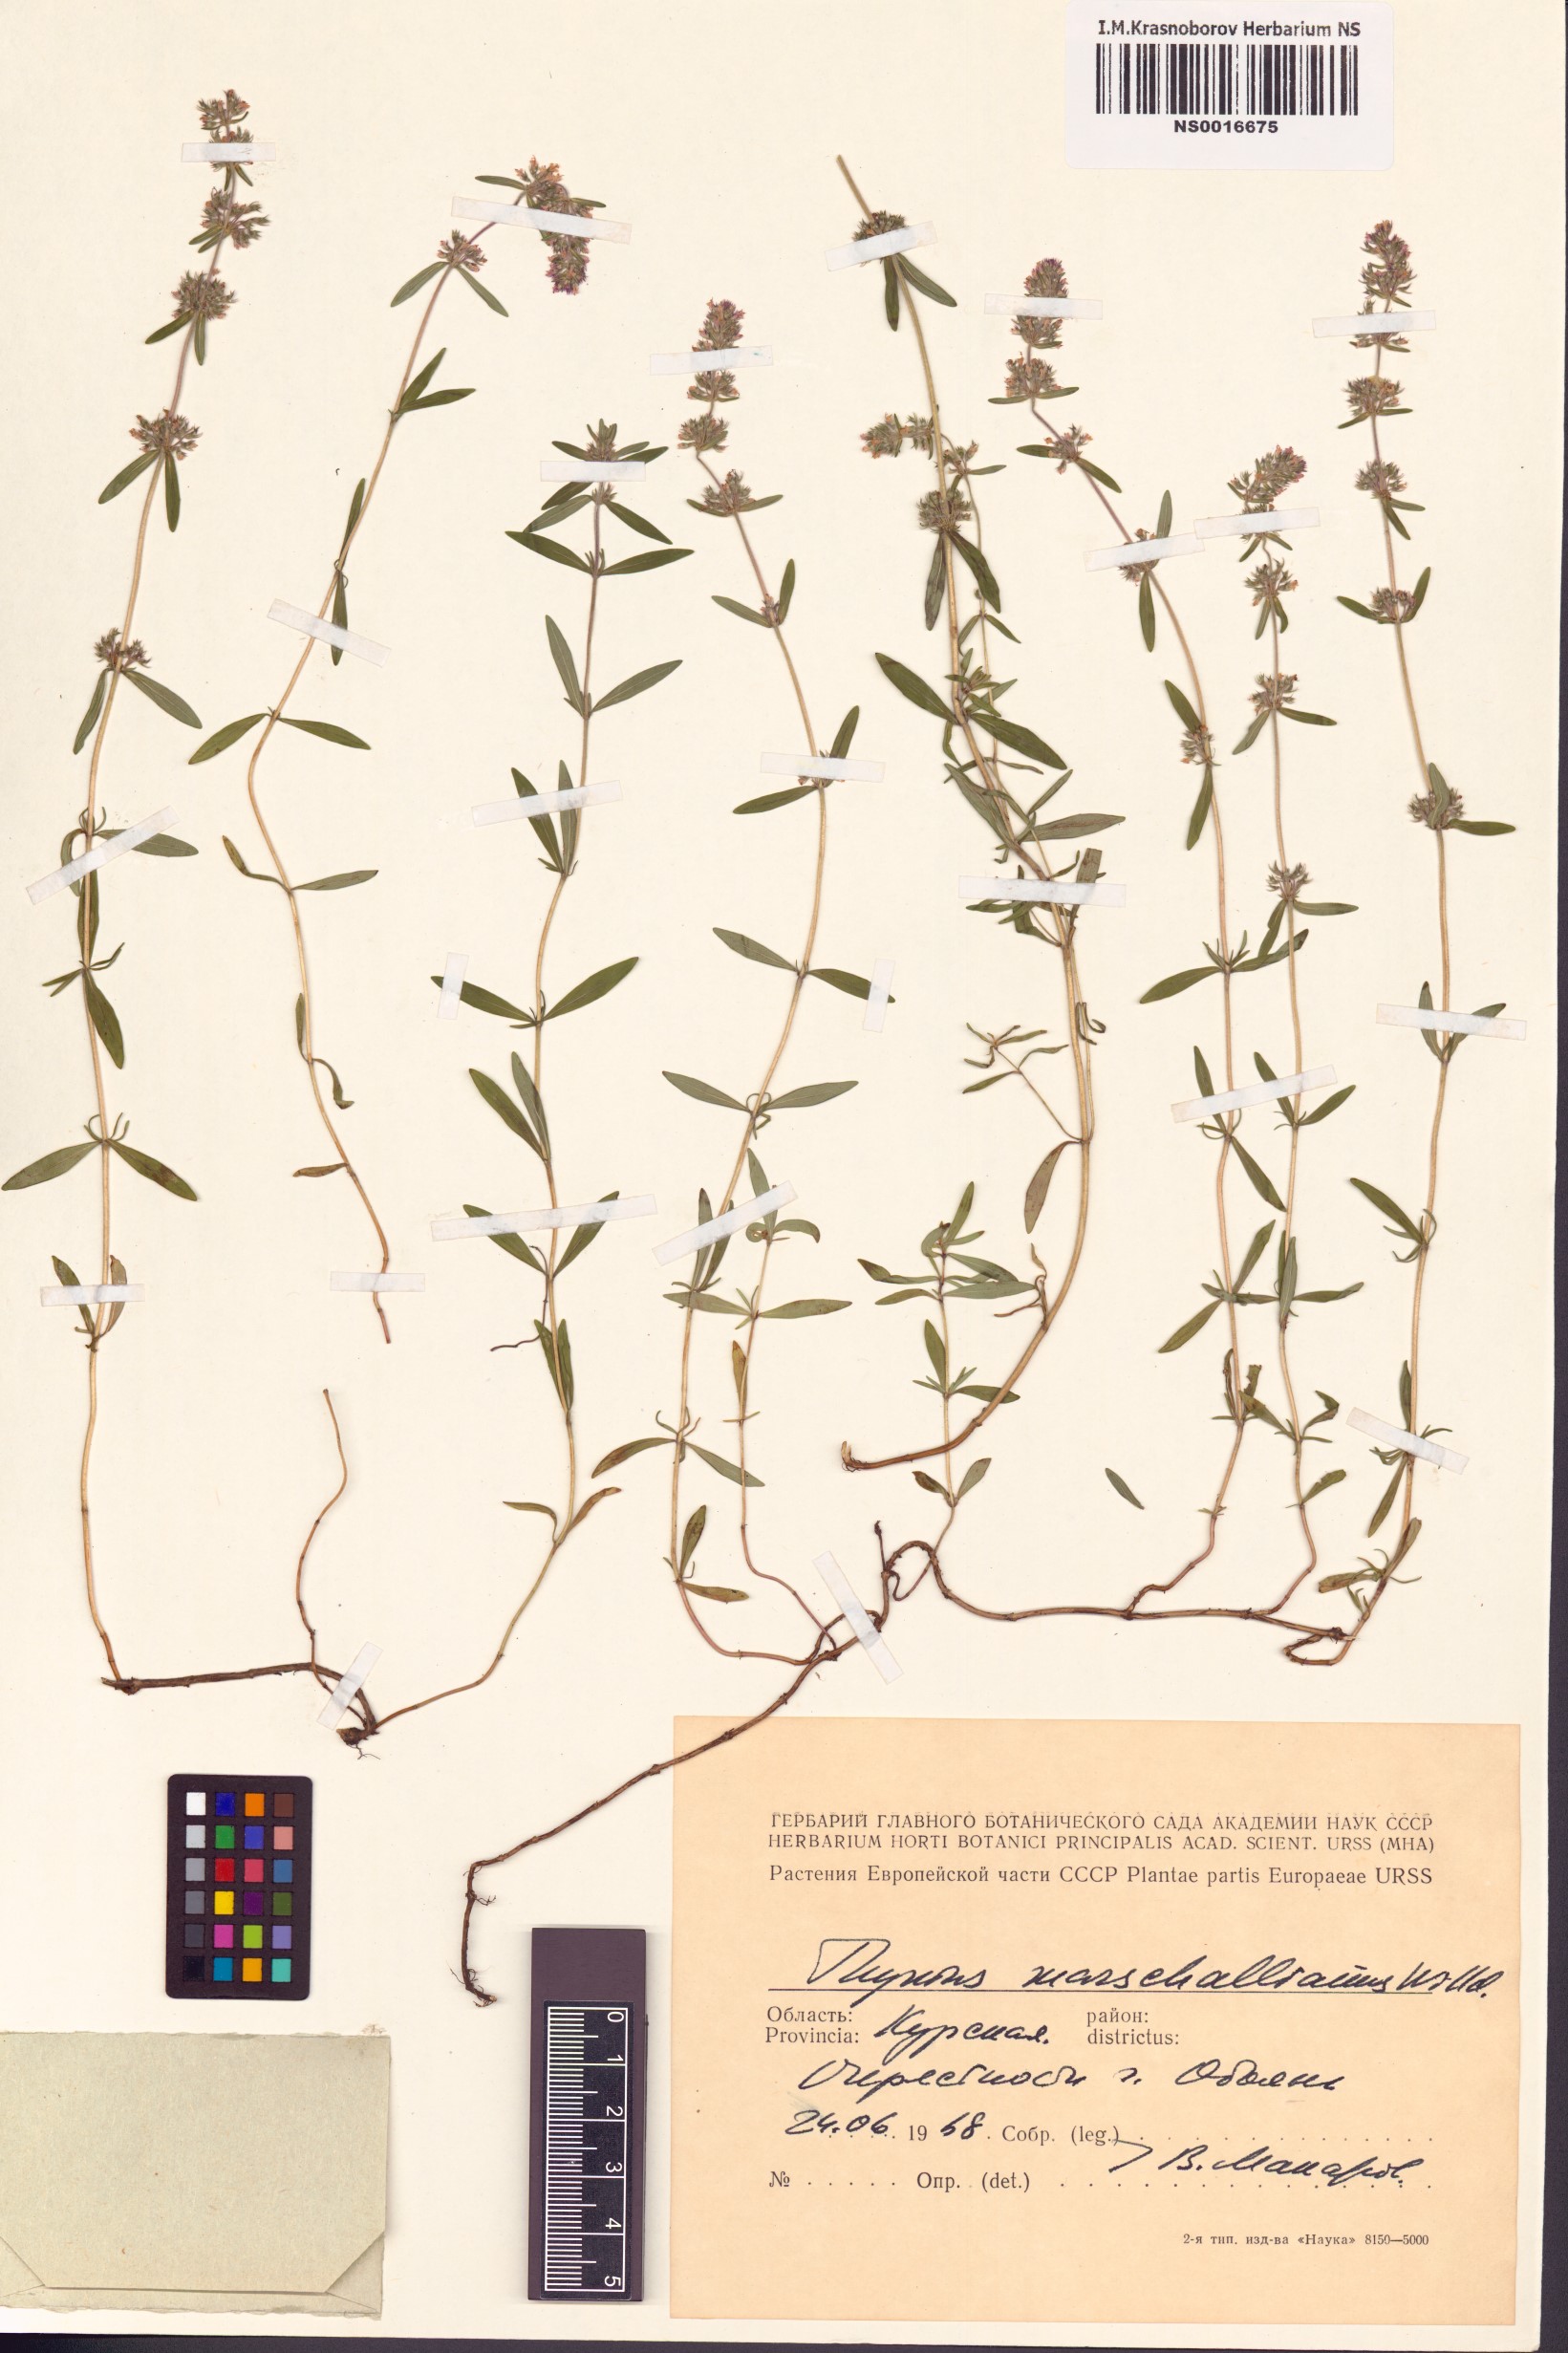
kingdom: Plantae
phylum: Tracheophyta
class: Magnoliopsida
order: Lamiales
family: Lamiaceae
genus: Thymus
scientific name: Thymus pannonicus
